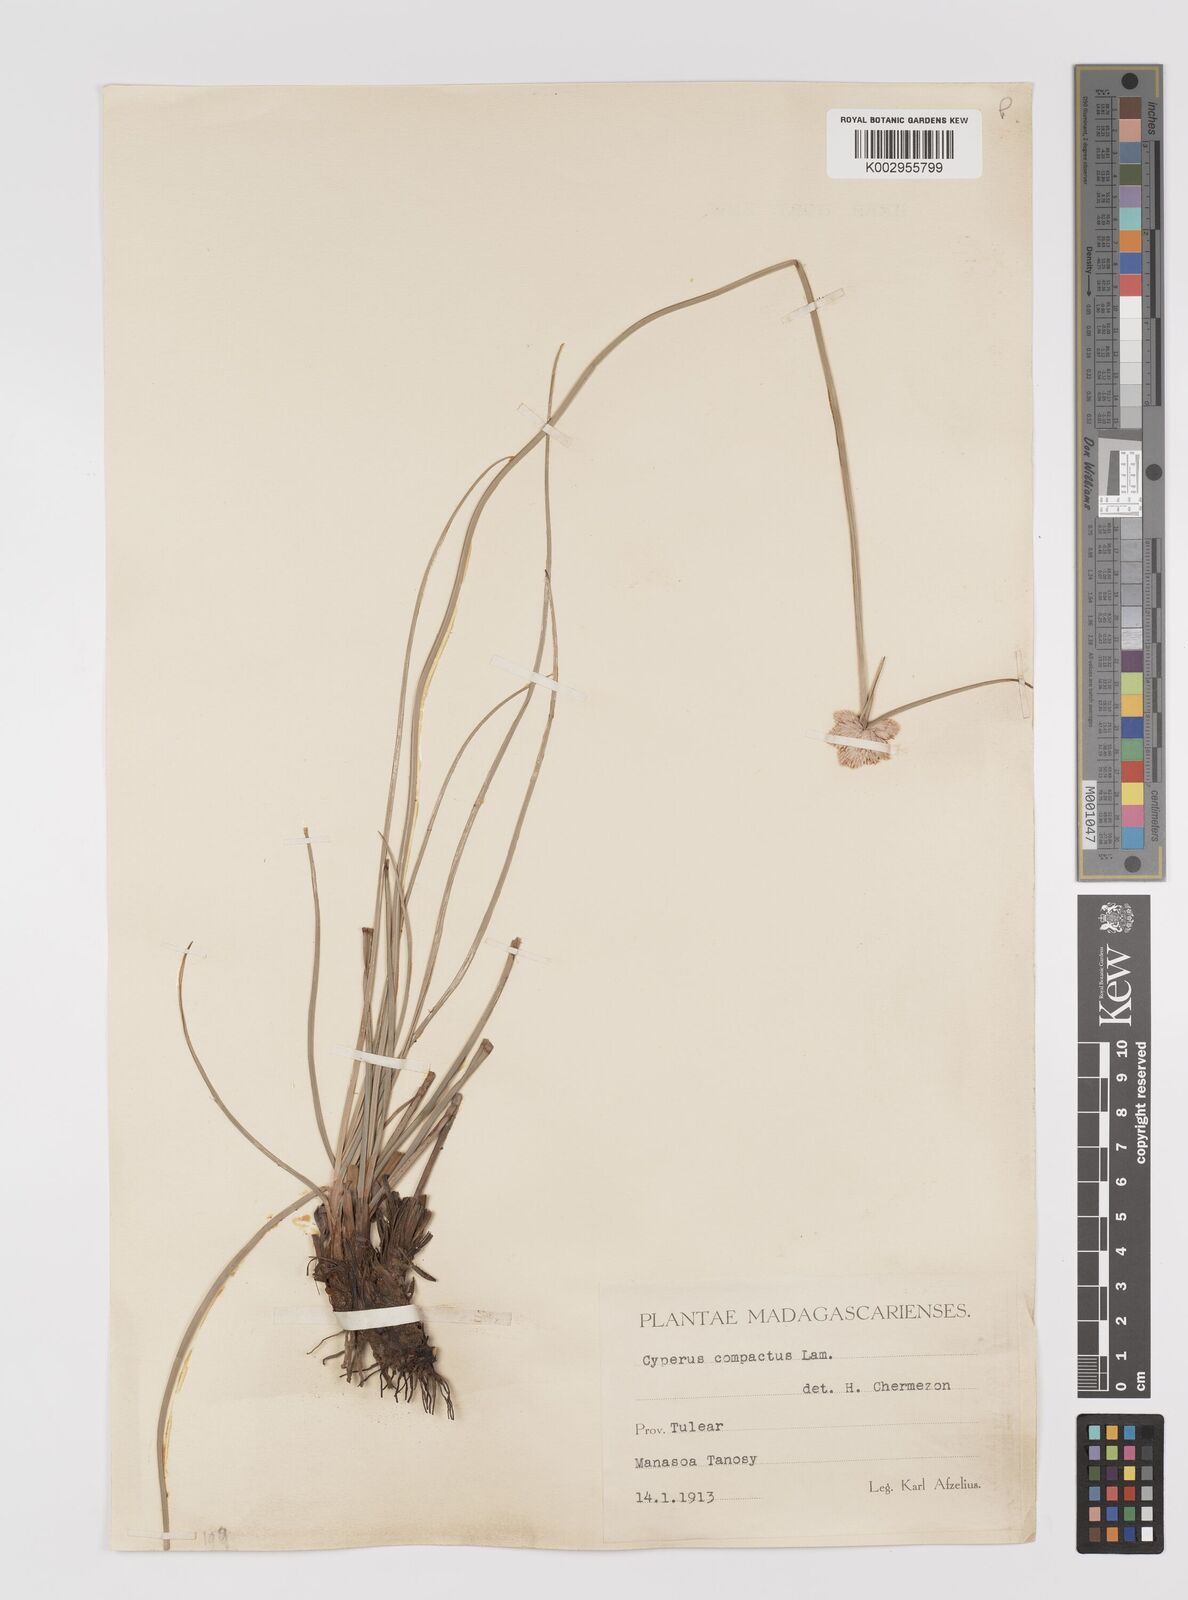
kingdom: Plantae
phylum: Tracheophyta
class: Liliopsida
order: Poales
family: Cyperaceae
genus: Cyperus
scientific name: Cyperus niveus
